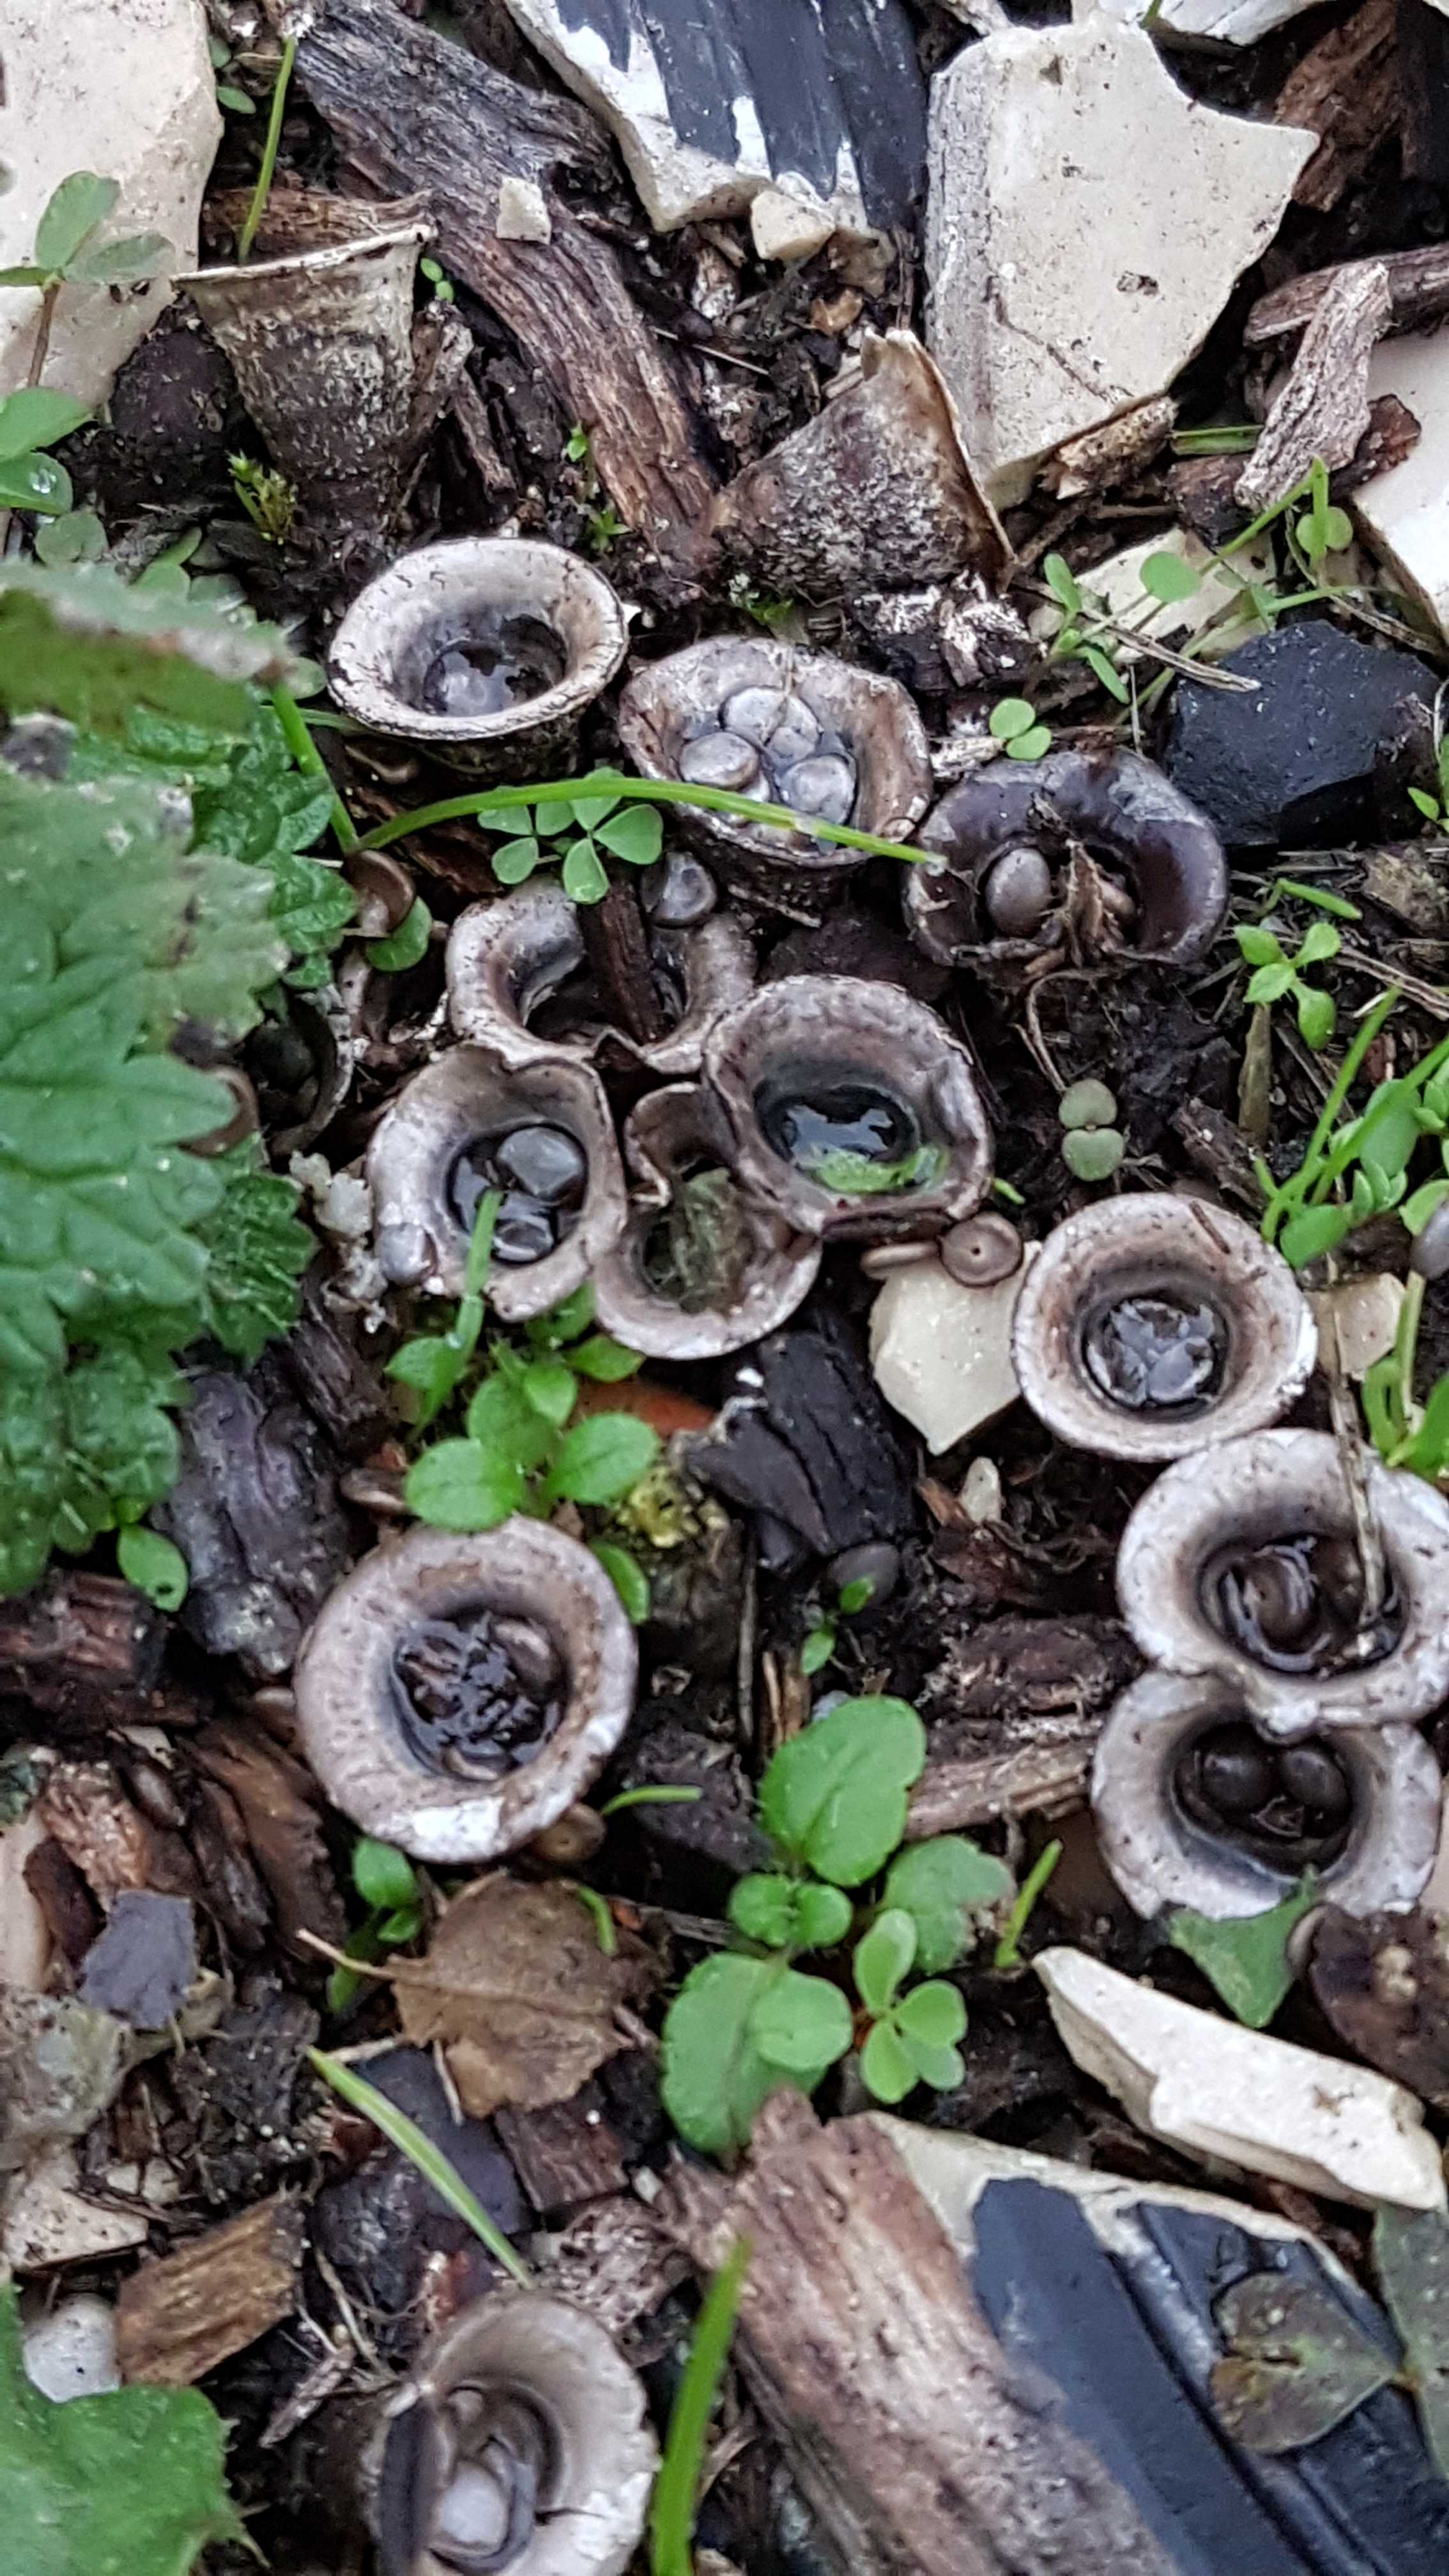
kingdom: Fungi
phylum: Basidiomycota
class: Agaricomycetes
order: Agaricales
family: Agaricaceae
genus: Cyathus
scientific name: Cyathus olla
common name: klokke-redesvamp
